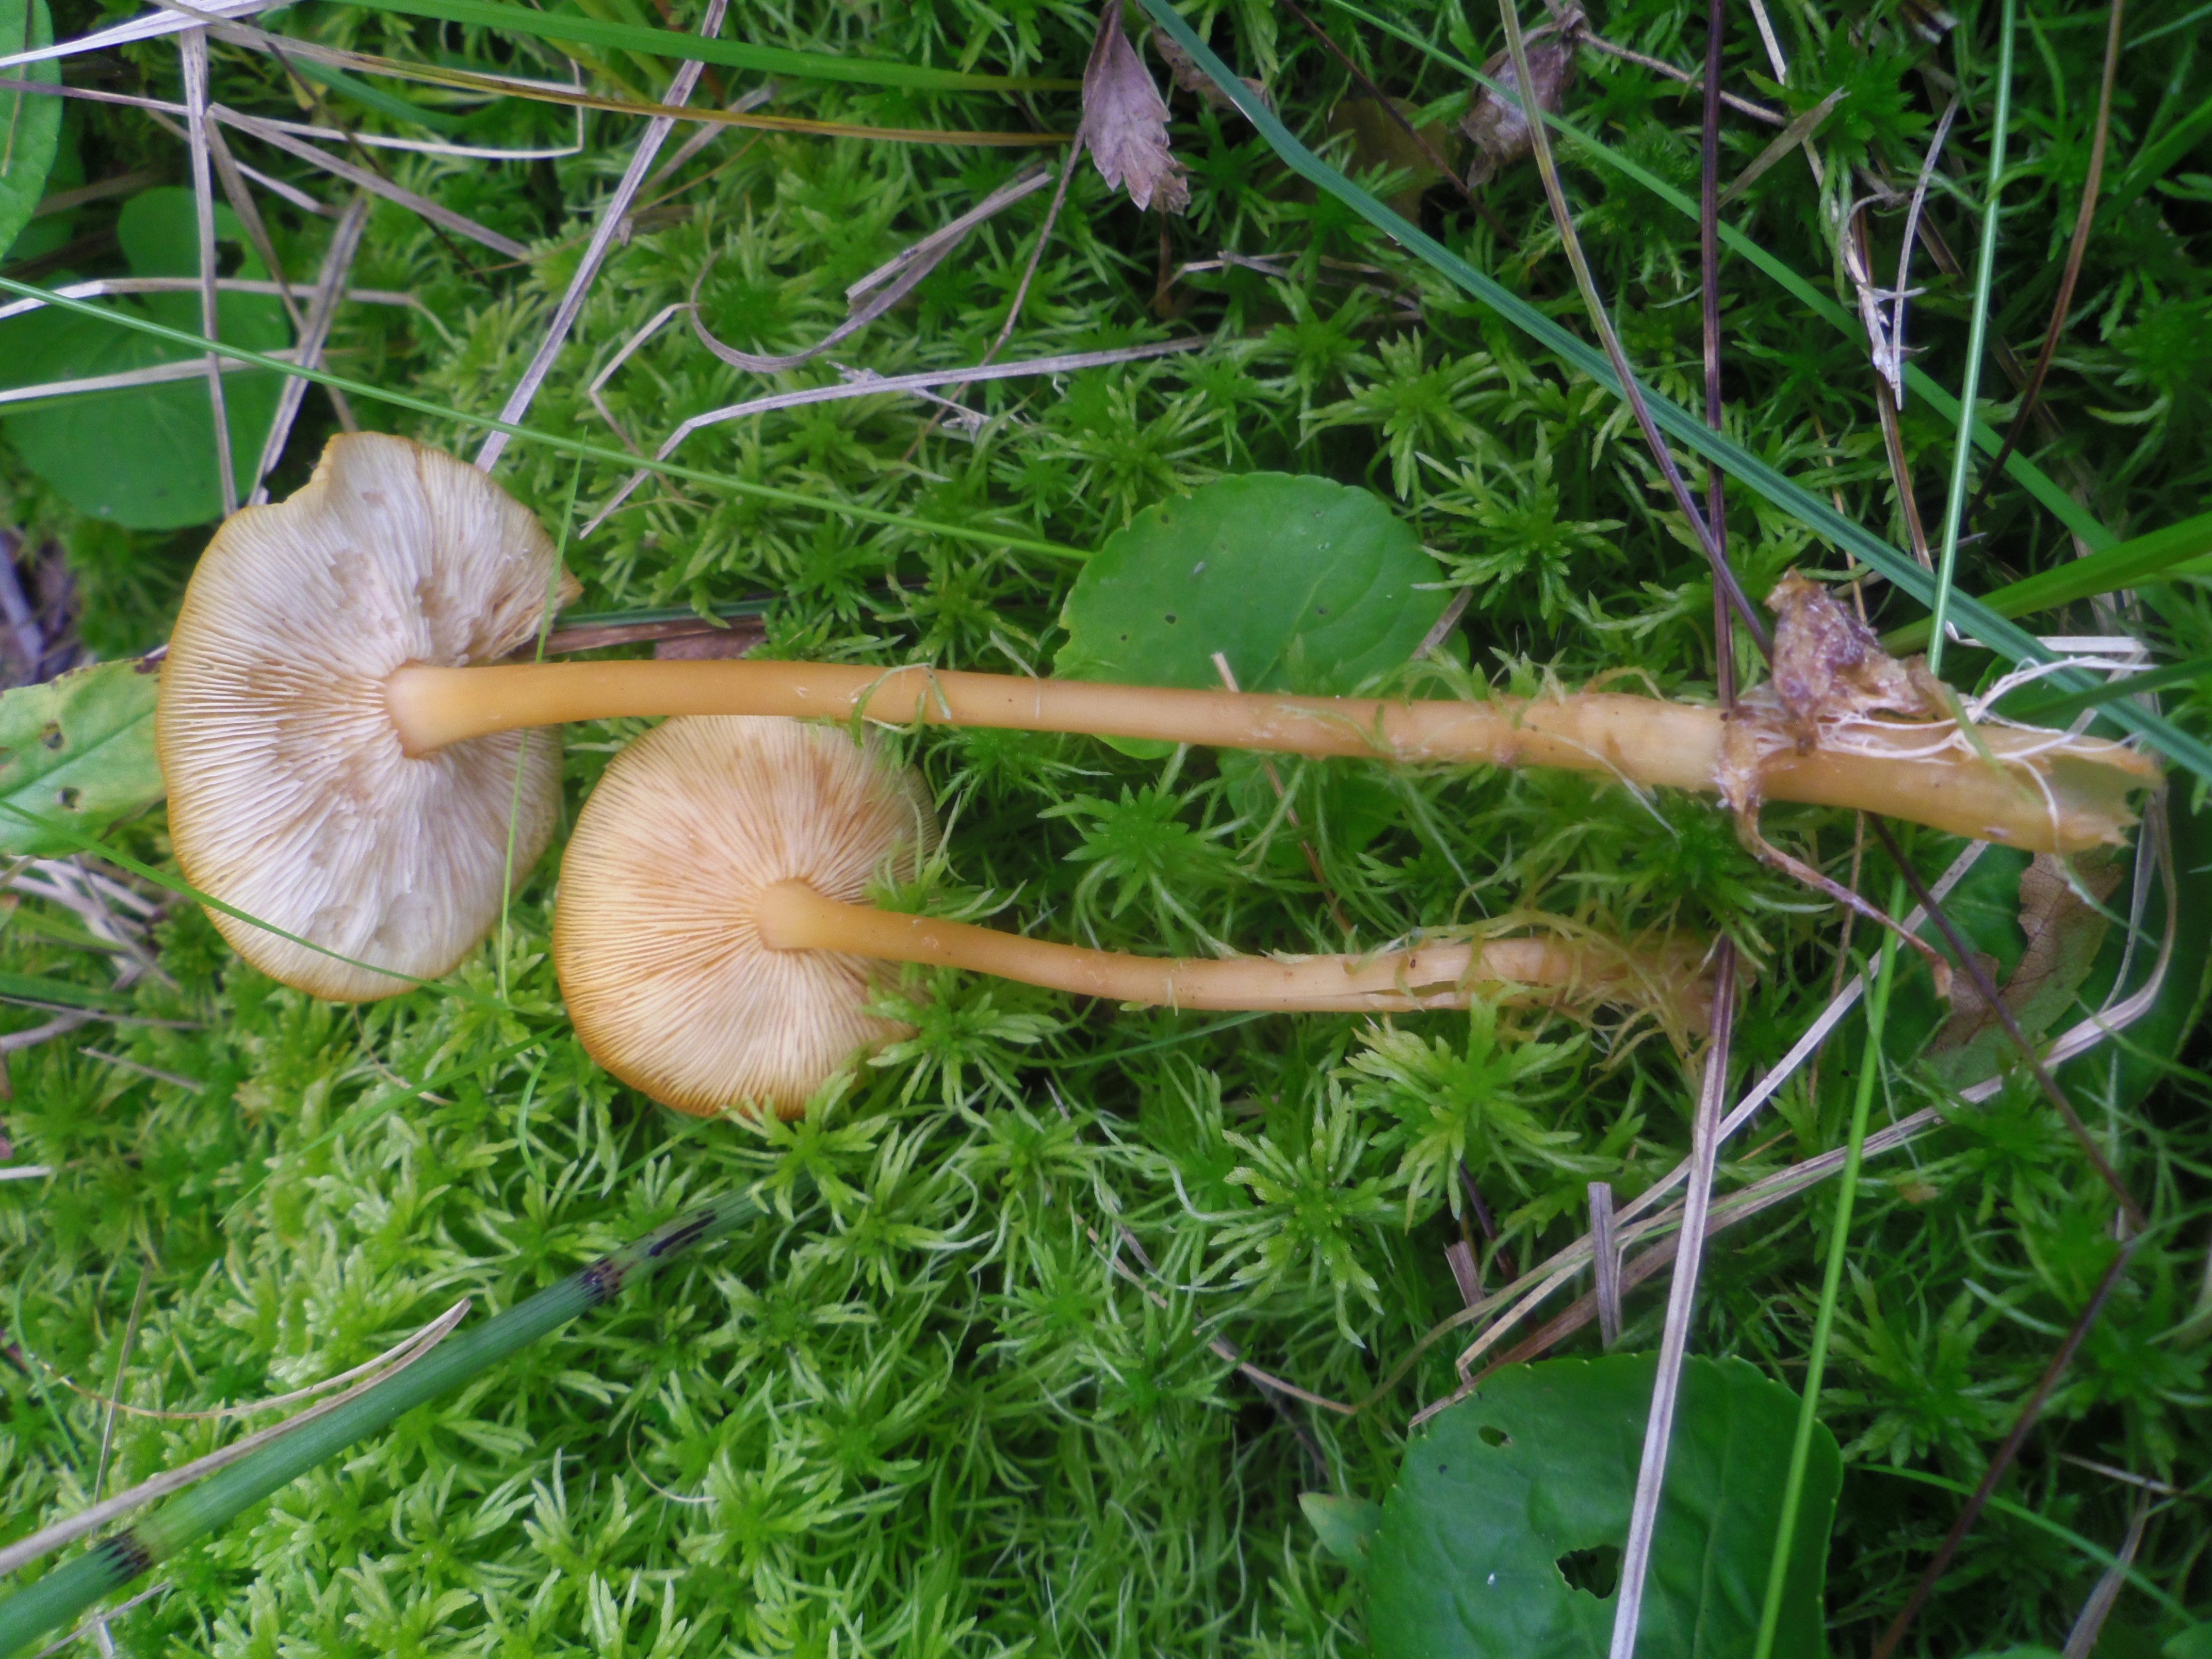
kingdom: Fungi
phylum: Basidiomycota
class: Agaricomycetes
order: Agaricales
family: Omphalotaceae
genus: Gymnopus
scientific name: Gymnopus dryophilus
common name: Penny top
